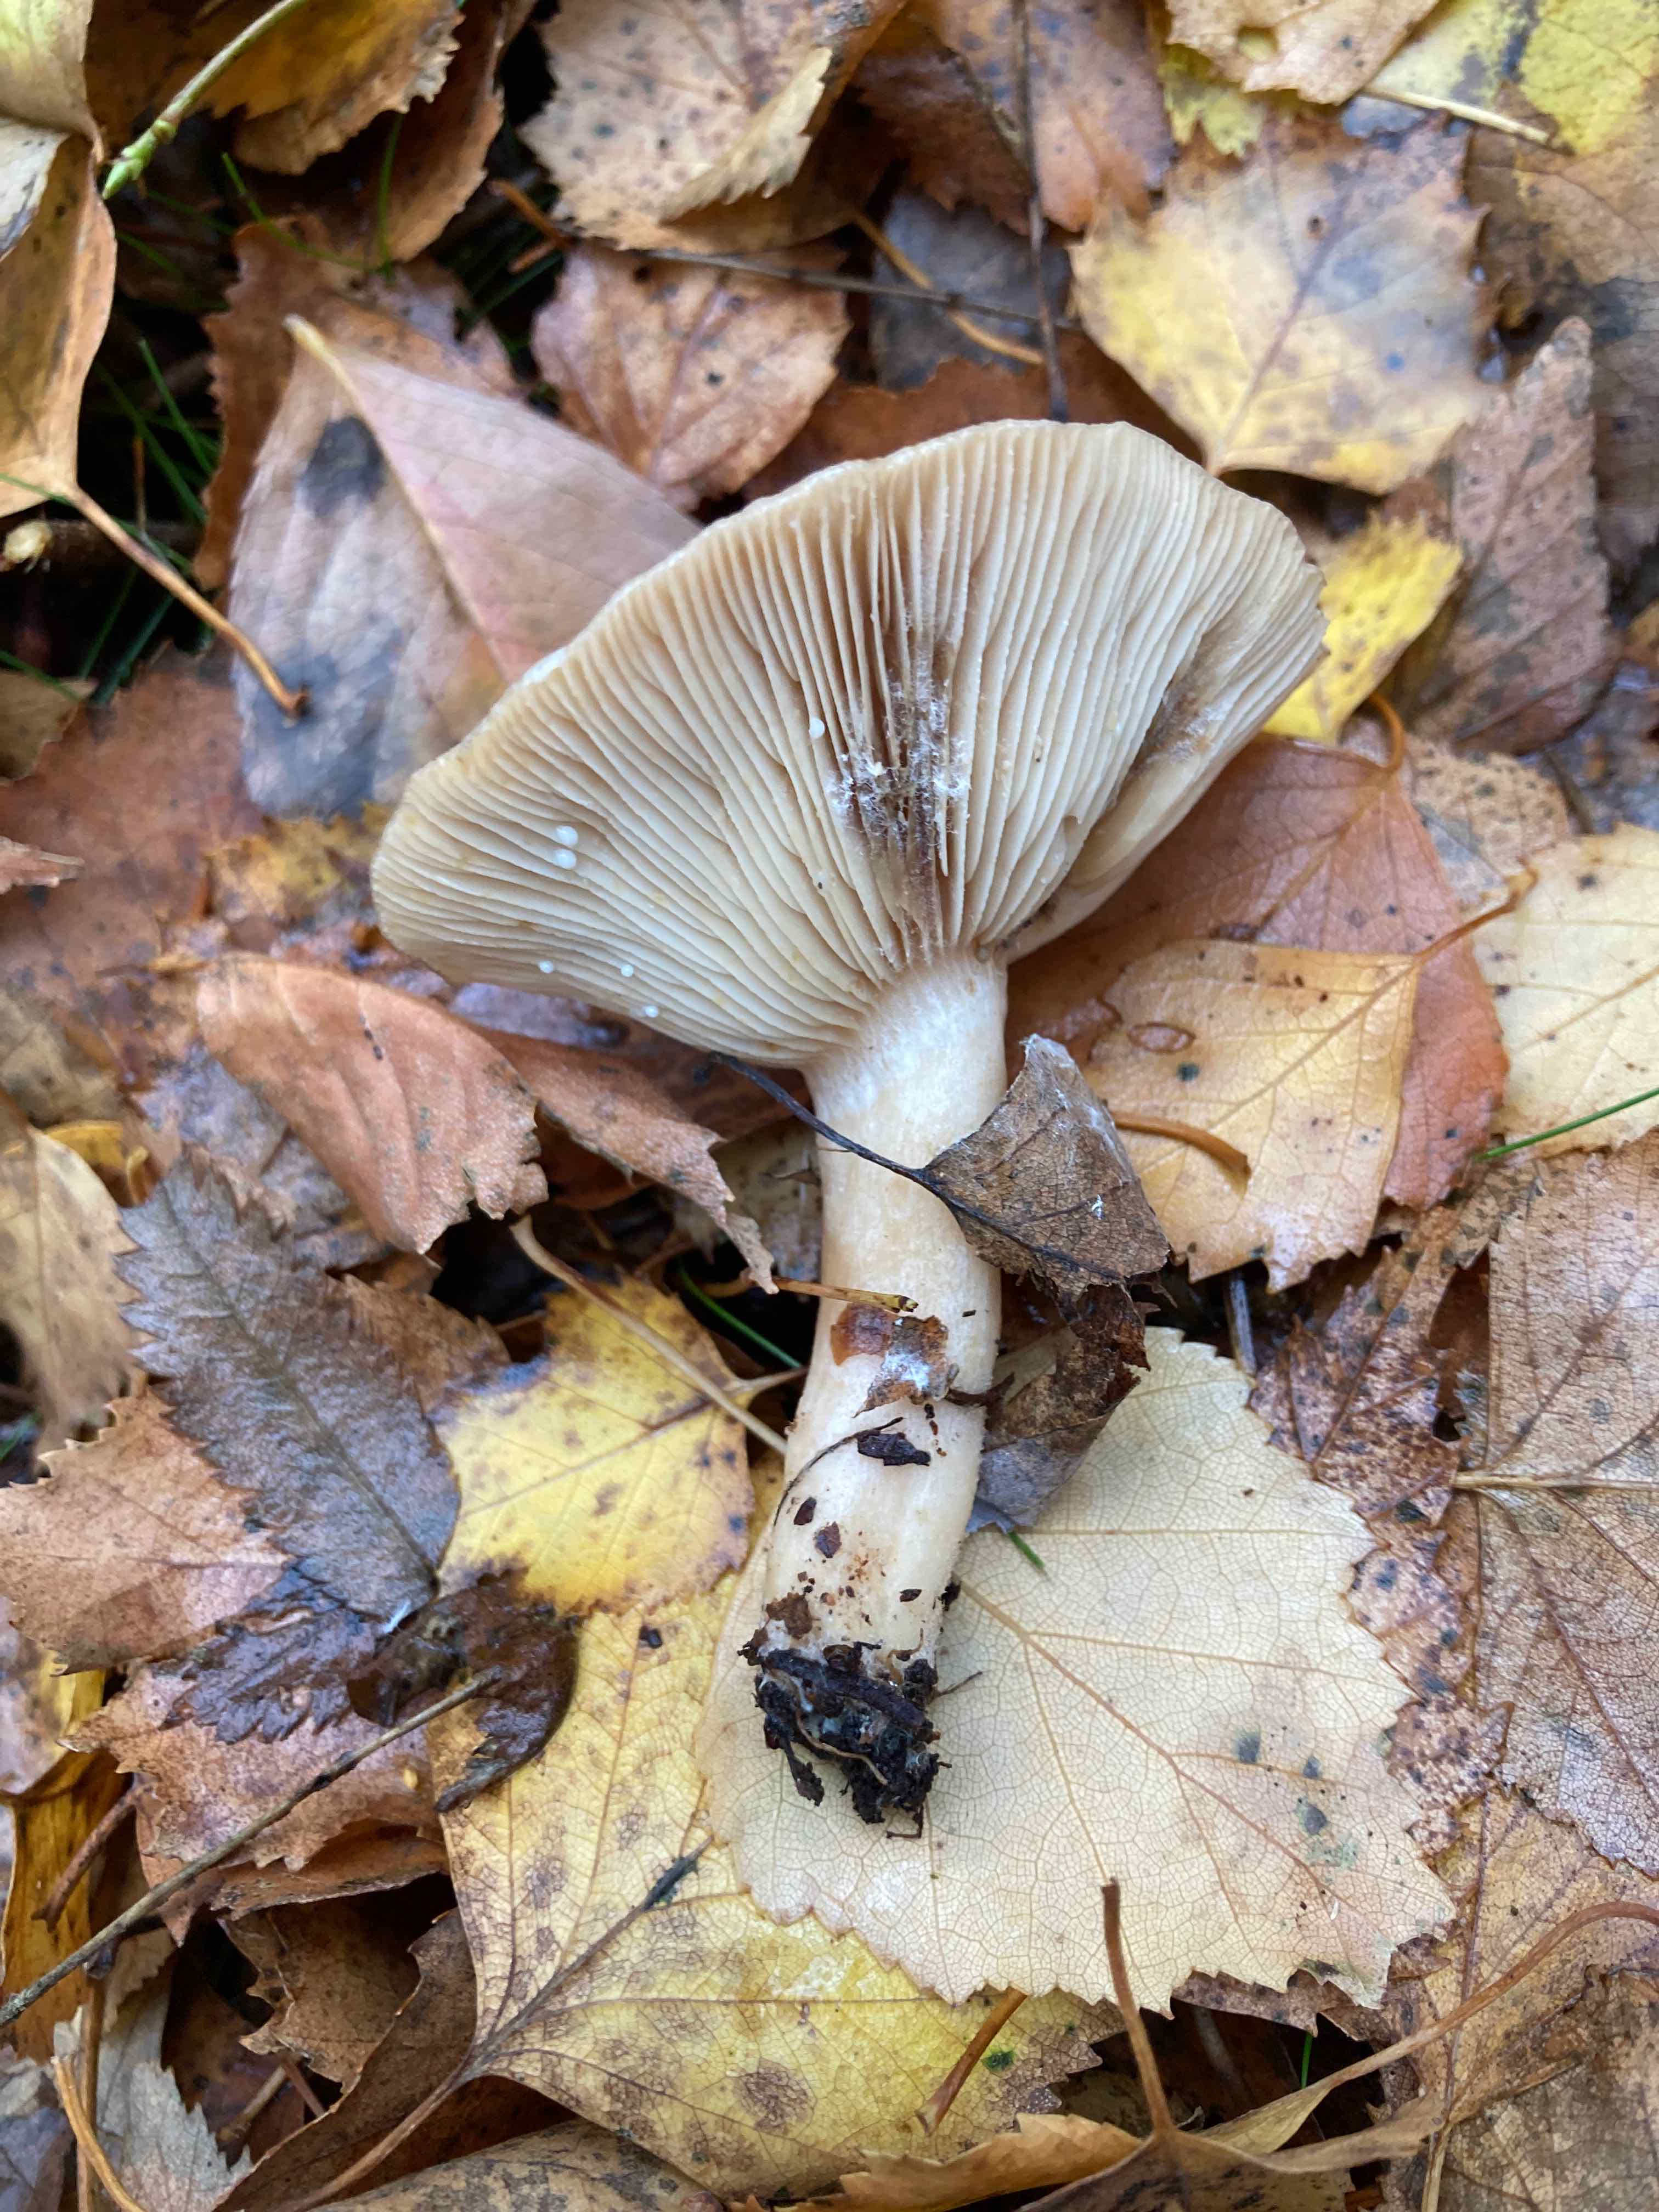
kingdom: Fungi
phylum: Basidiomycota
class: Agaricomycetes
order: Russulales
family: Russulaceae
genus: Lactarius
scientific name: Lactarius vietus
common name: violetgrå mælkehat
